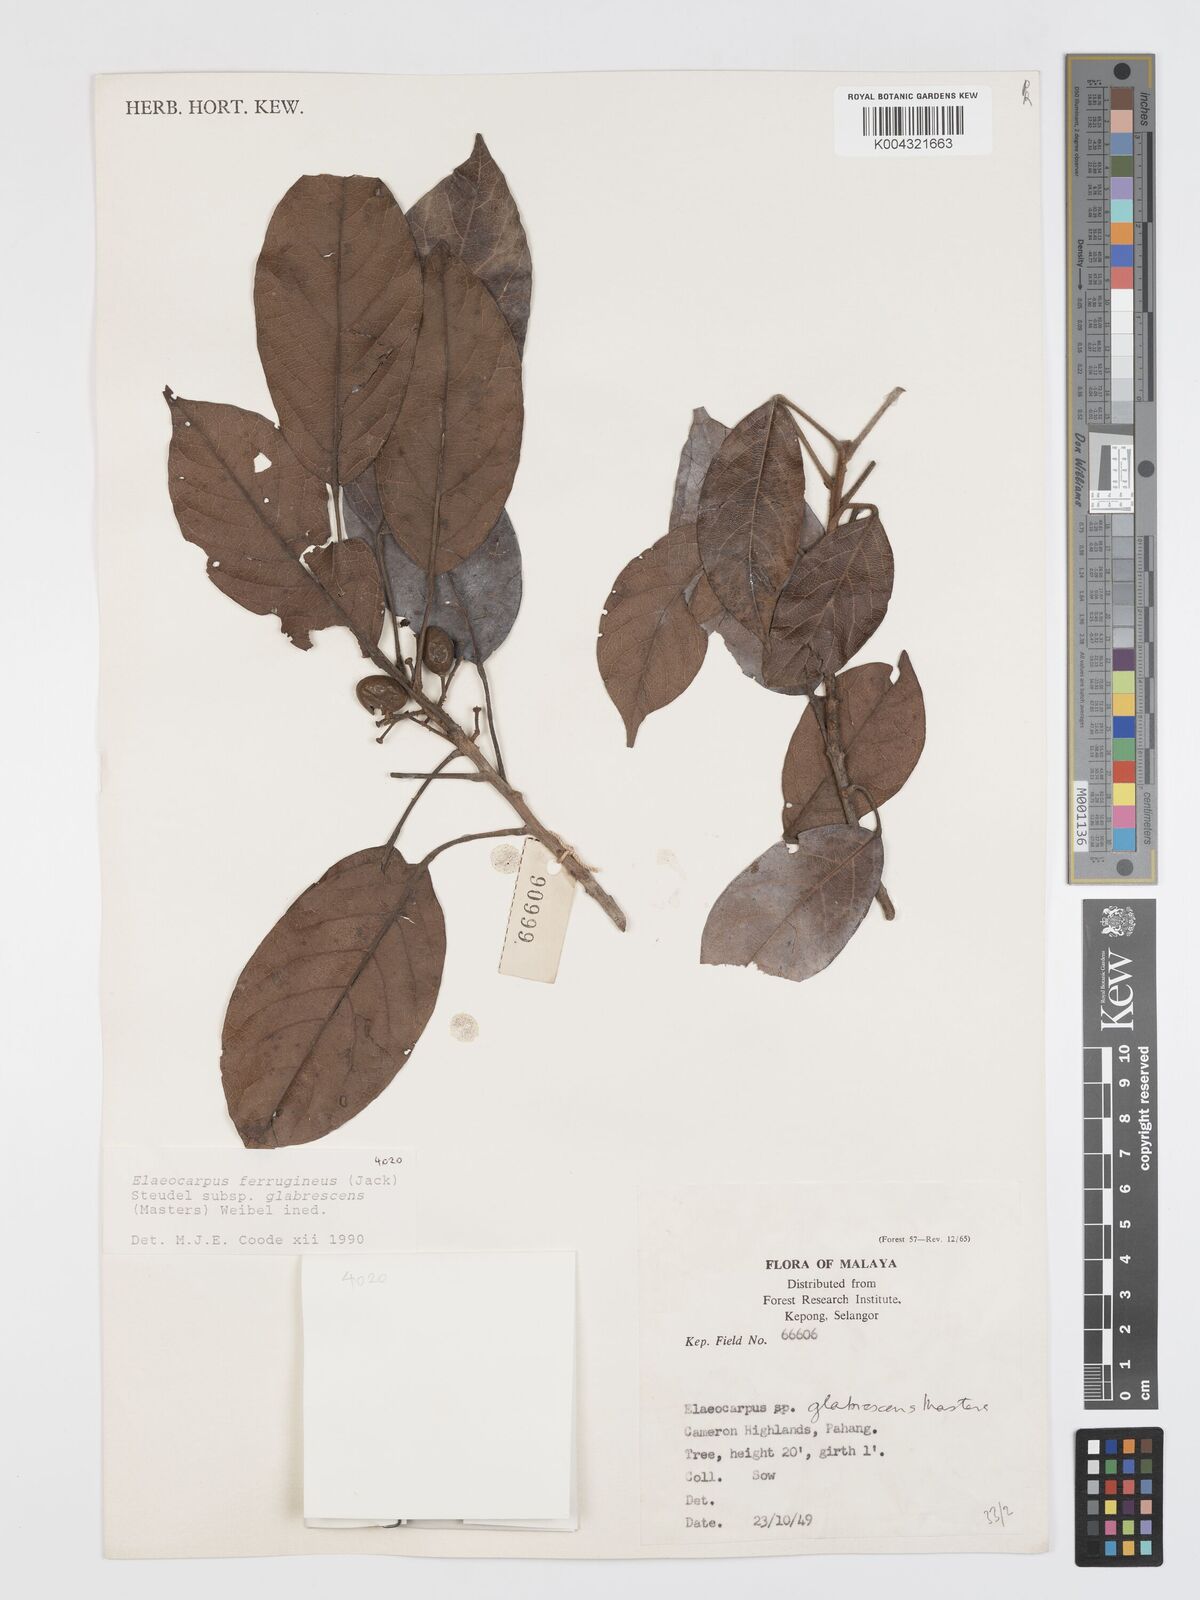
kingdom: Plantae
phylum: Tracheophyta
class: Magnoliopsida
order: Oxalidales
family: Elaeocarpaceae
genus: Elaeocarpus
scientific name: Elaeocarpus ferrugineus
